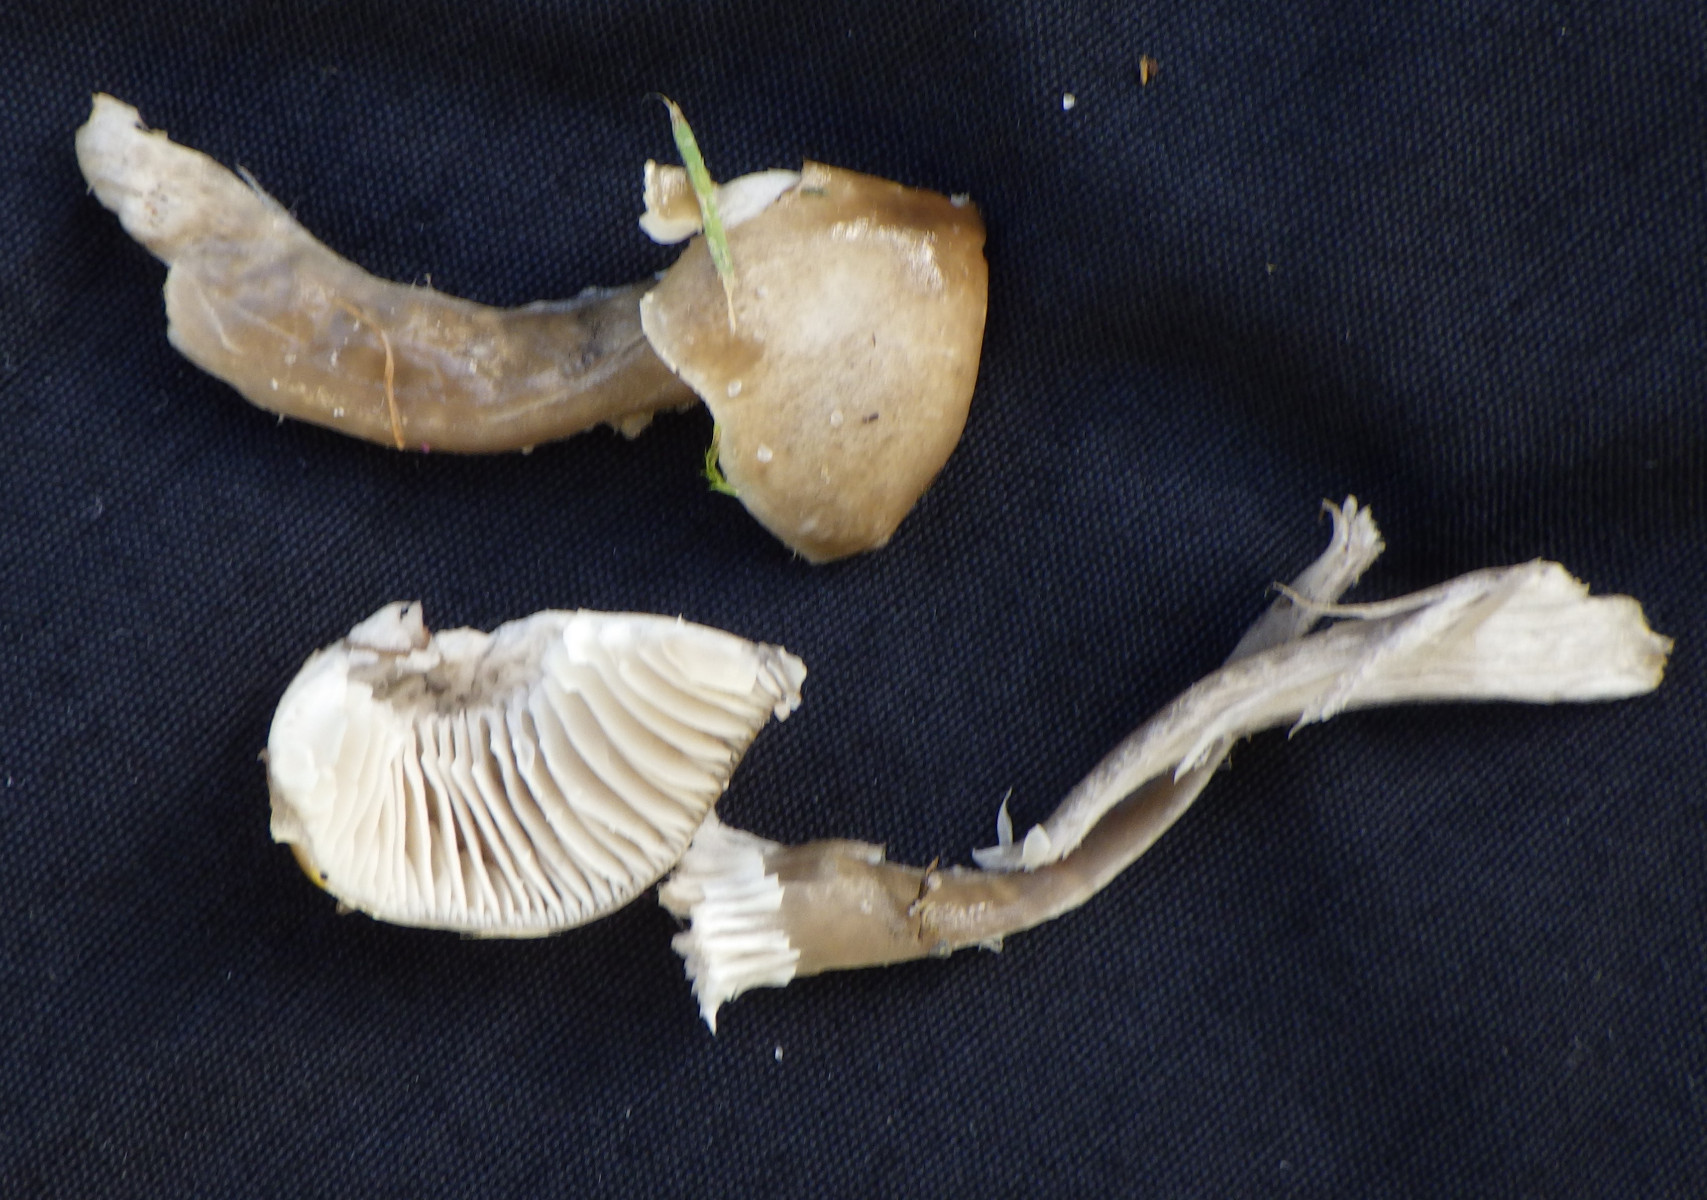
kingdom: Fungi
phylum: Basidiomycota
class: Agaricomycetes
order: Agaricales
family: Hygrophoraceae
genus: Gliophorus
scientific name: Gliophorus irrigatus
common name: slimet vokshat
